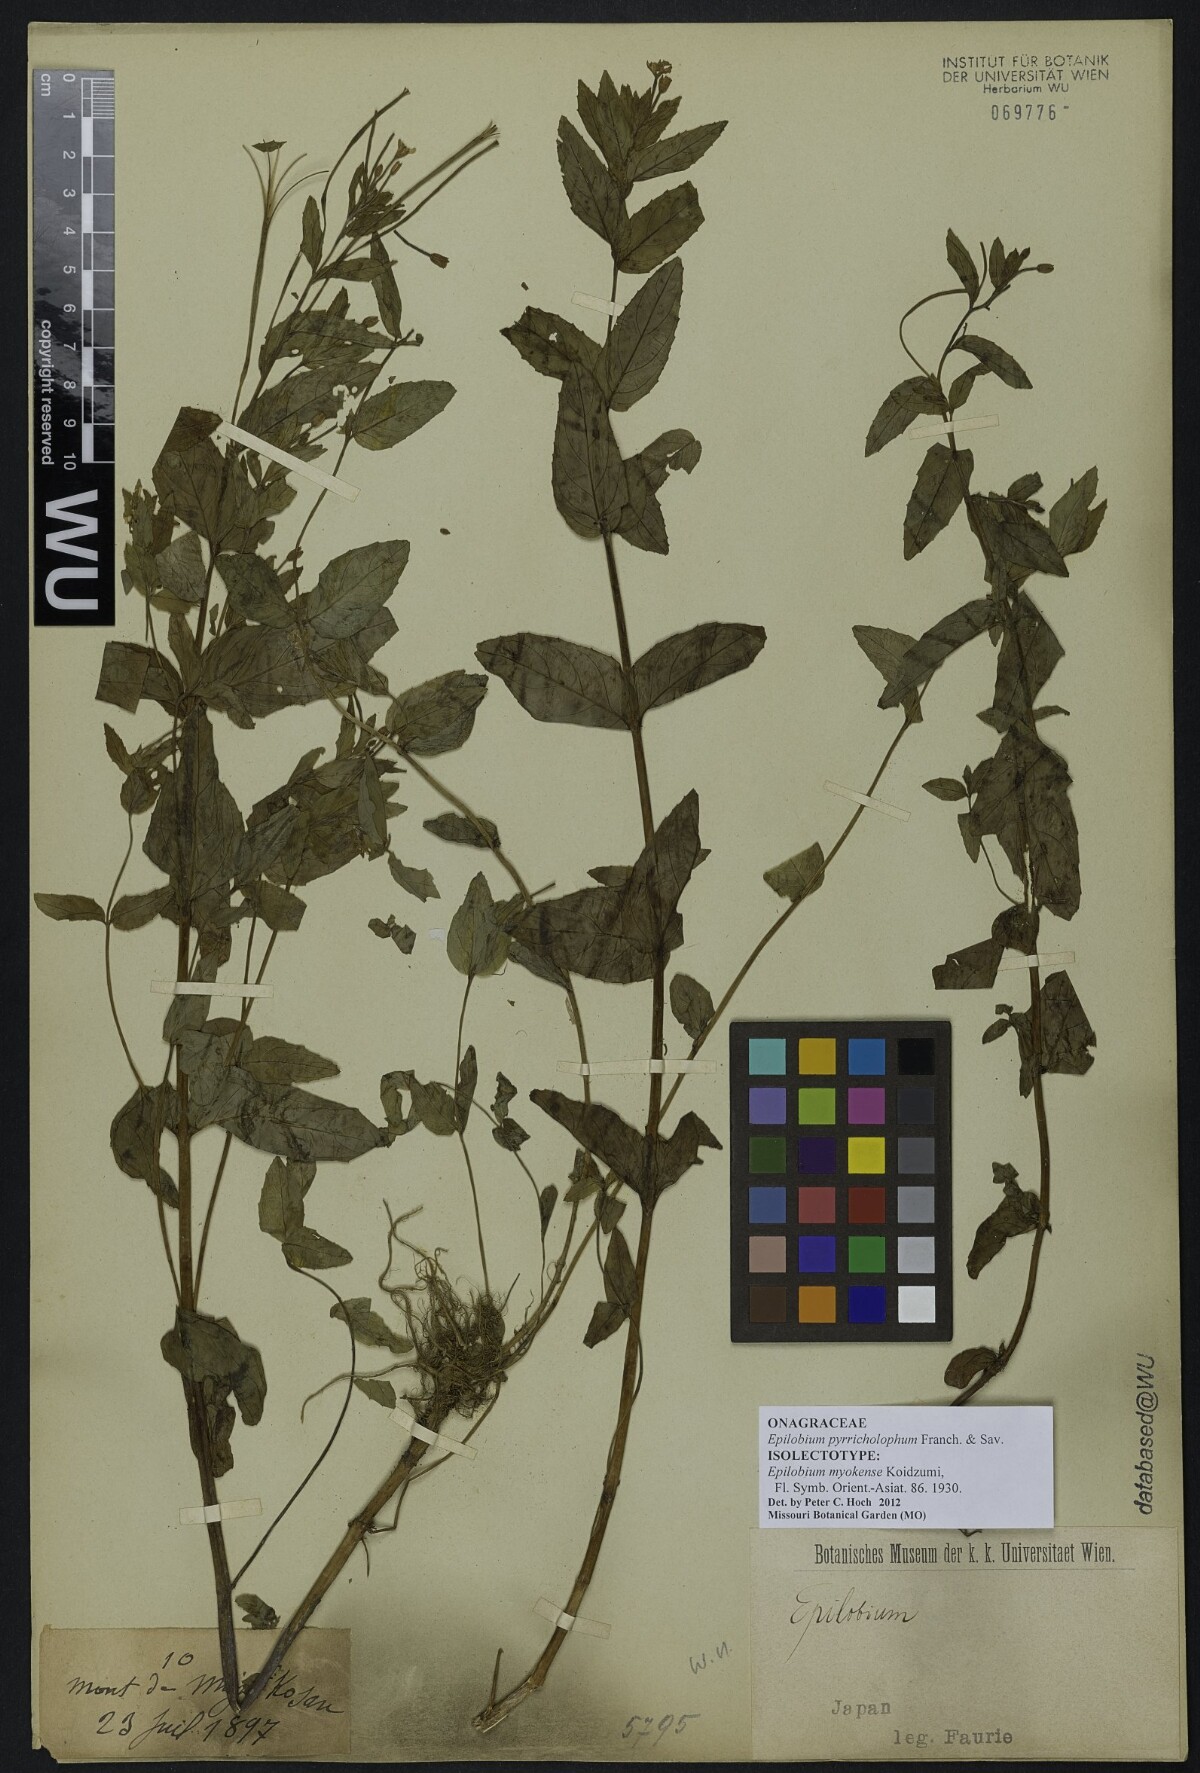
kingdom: Plantae
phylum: Tracheophyta
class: Magnoliopsida
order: Myrtales
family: Onagraceae
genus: Epilobium
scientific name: Epilobium pyrricholophum
